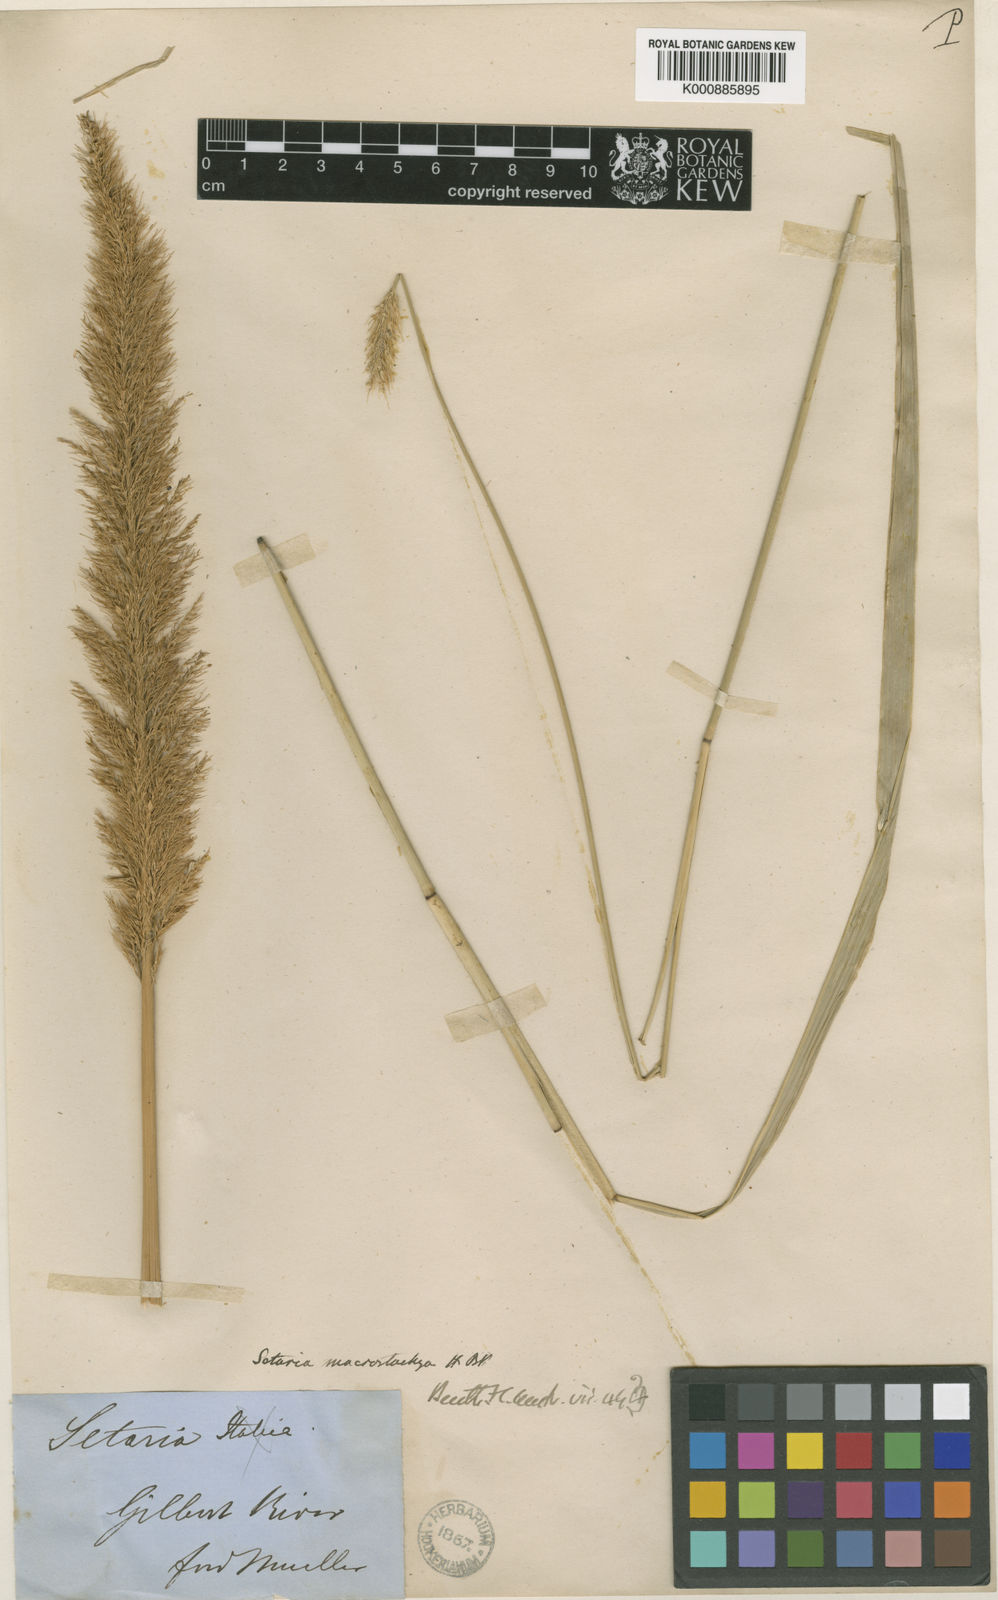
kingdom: Plantae
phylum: Tracheophyta
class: Liliopsida
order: Poales
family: Poaceae
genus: Setaria
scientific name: Setaria australiensis
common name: Scrub pigeon grass
